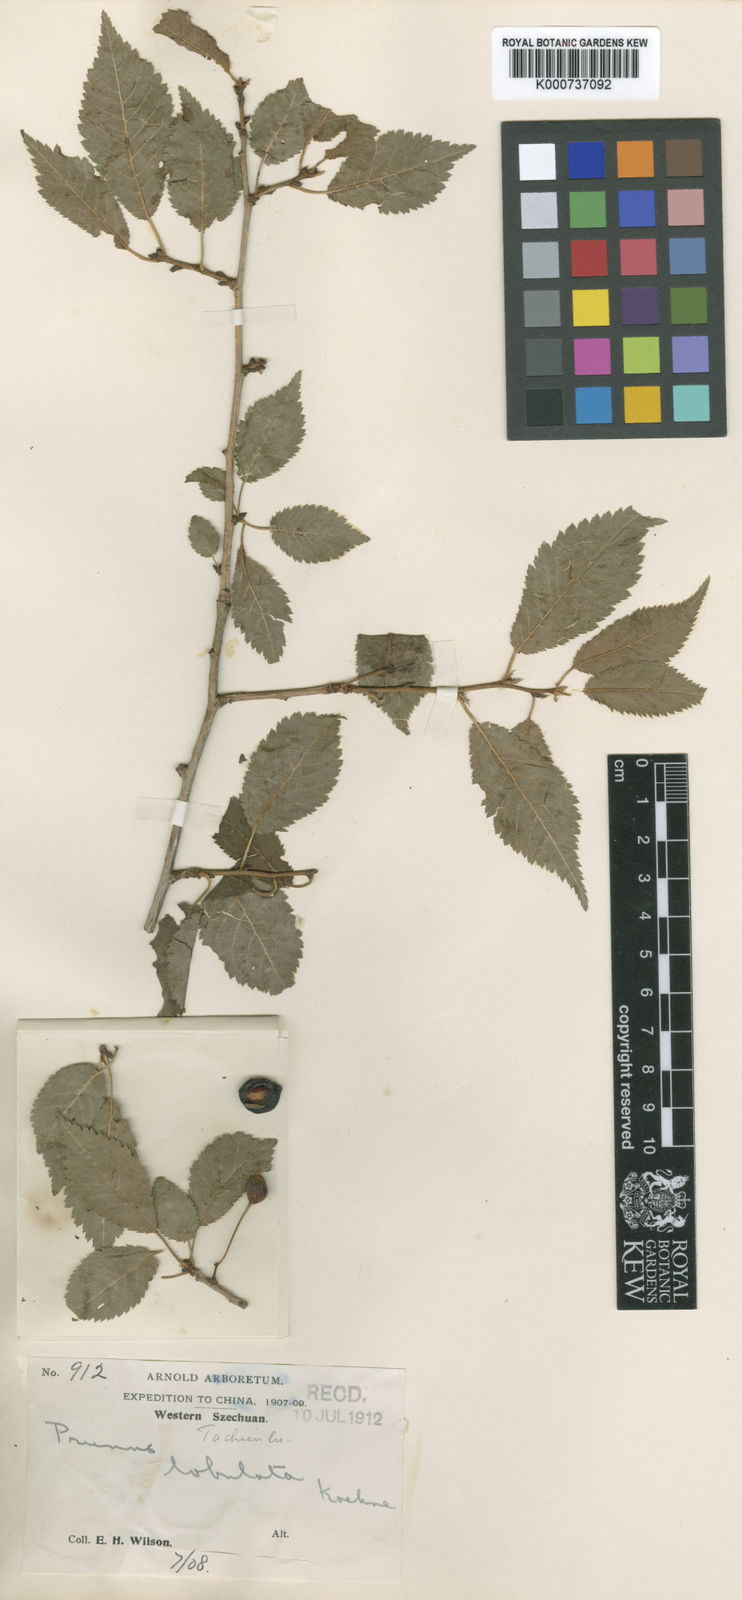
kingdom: Plantae
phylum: Tracheophyta
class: Magnoliopsida
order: Rosales
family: Rosaceae
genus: Prunus
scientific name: Prunus trichostoma
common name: Ribbed cherry
